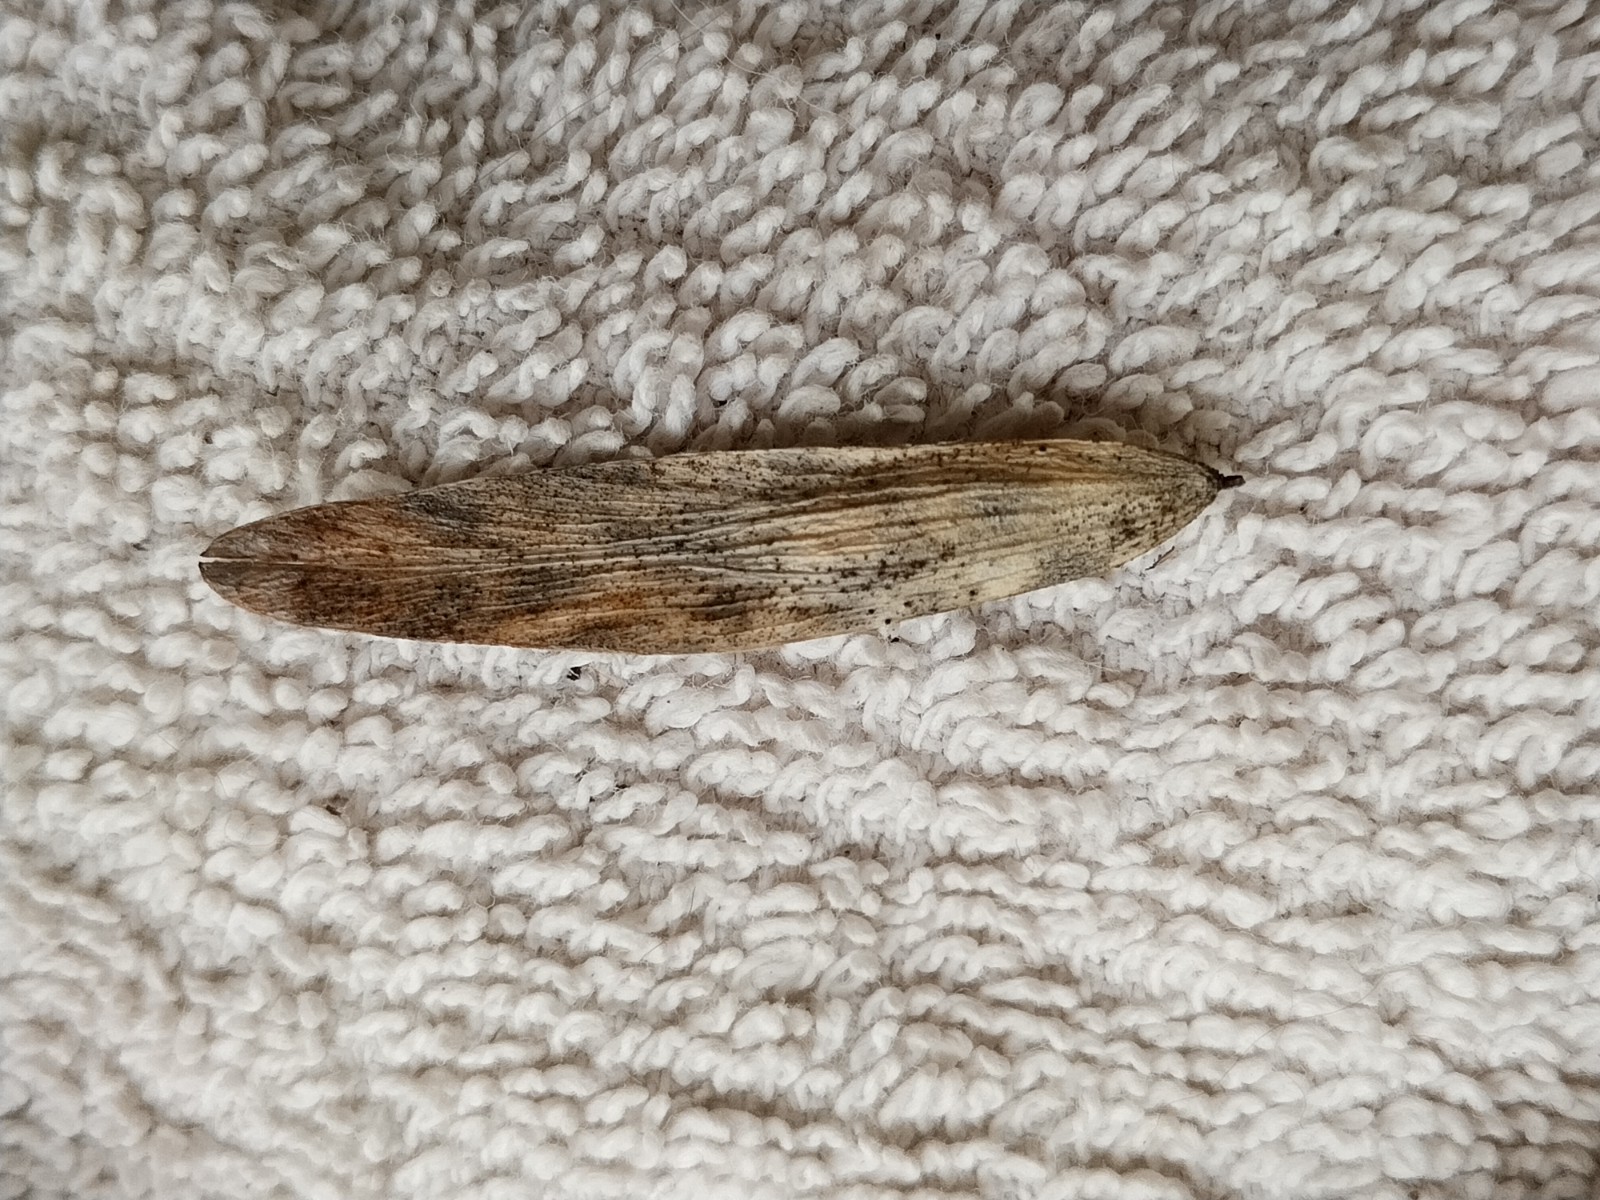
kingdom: Fungi
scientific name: Fungi
